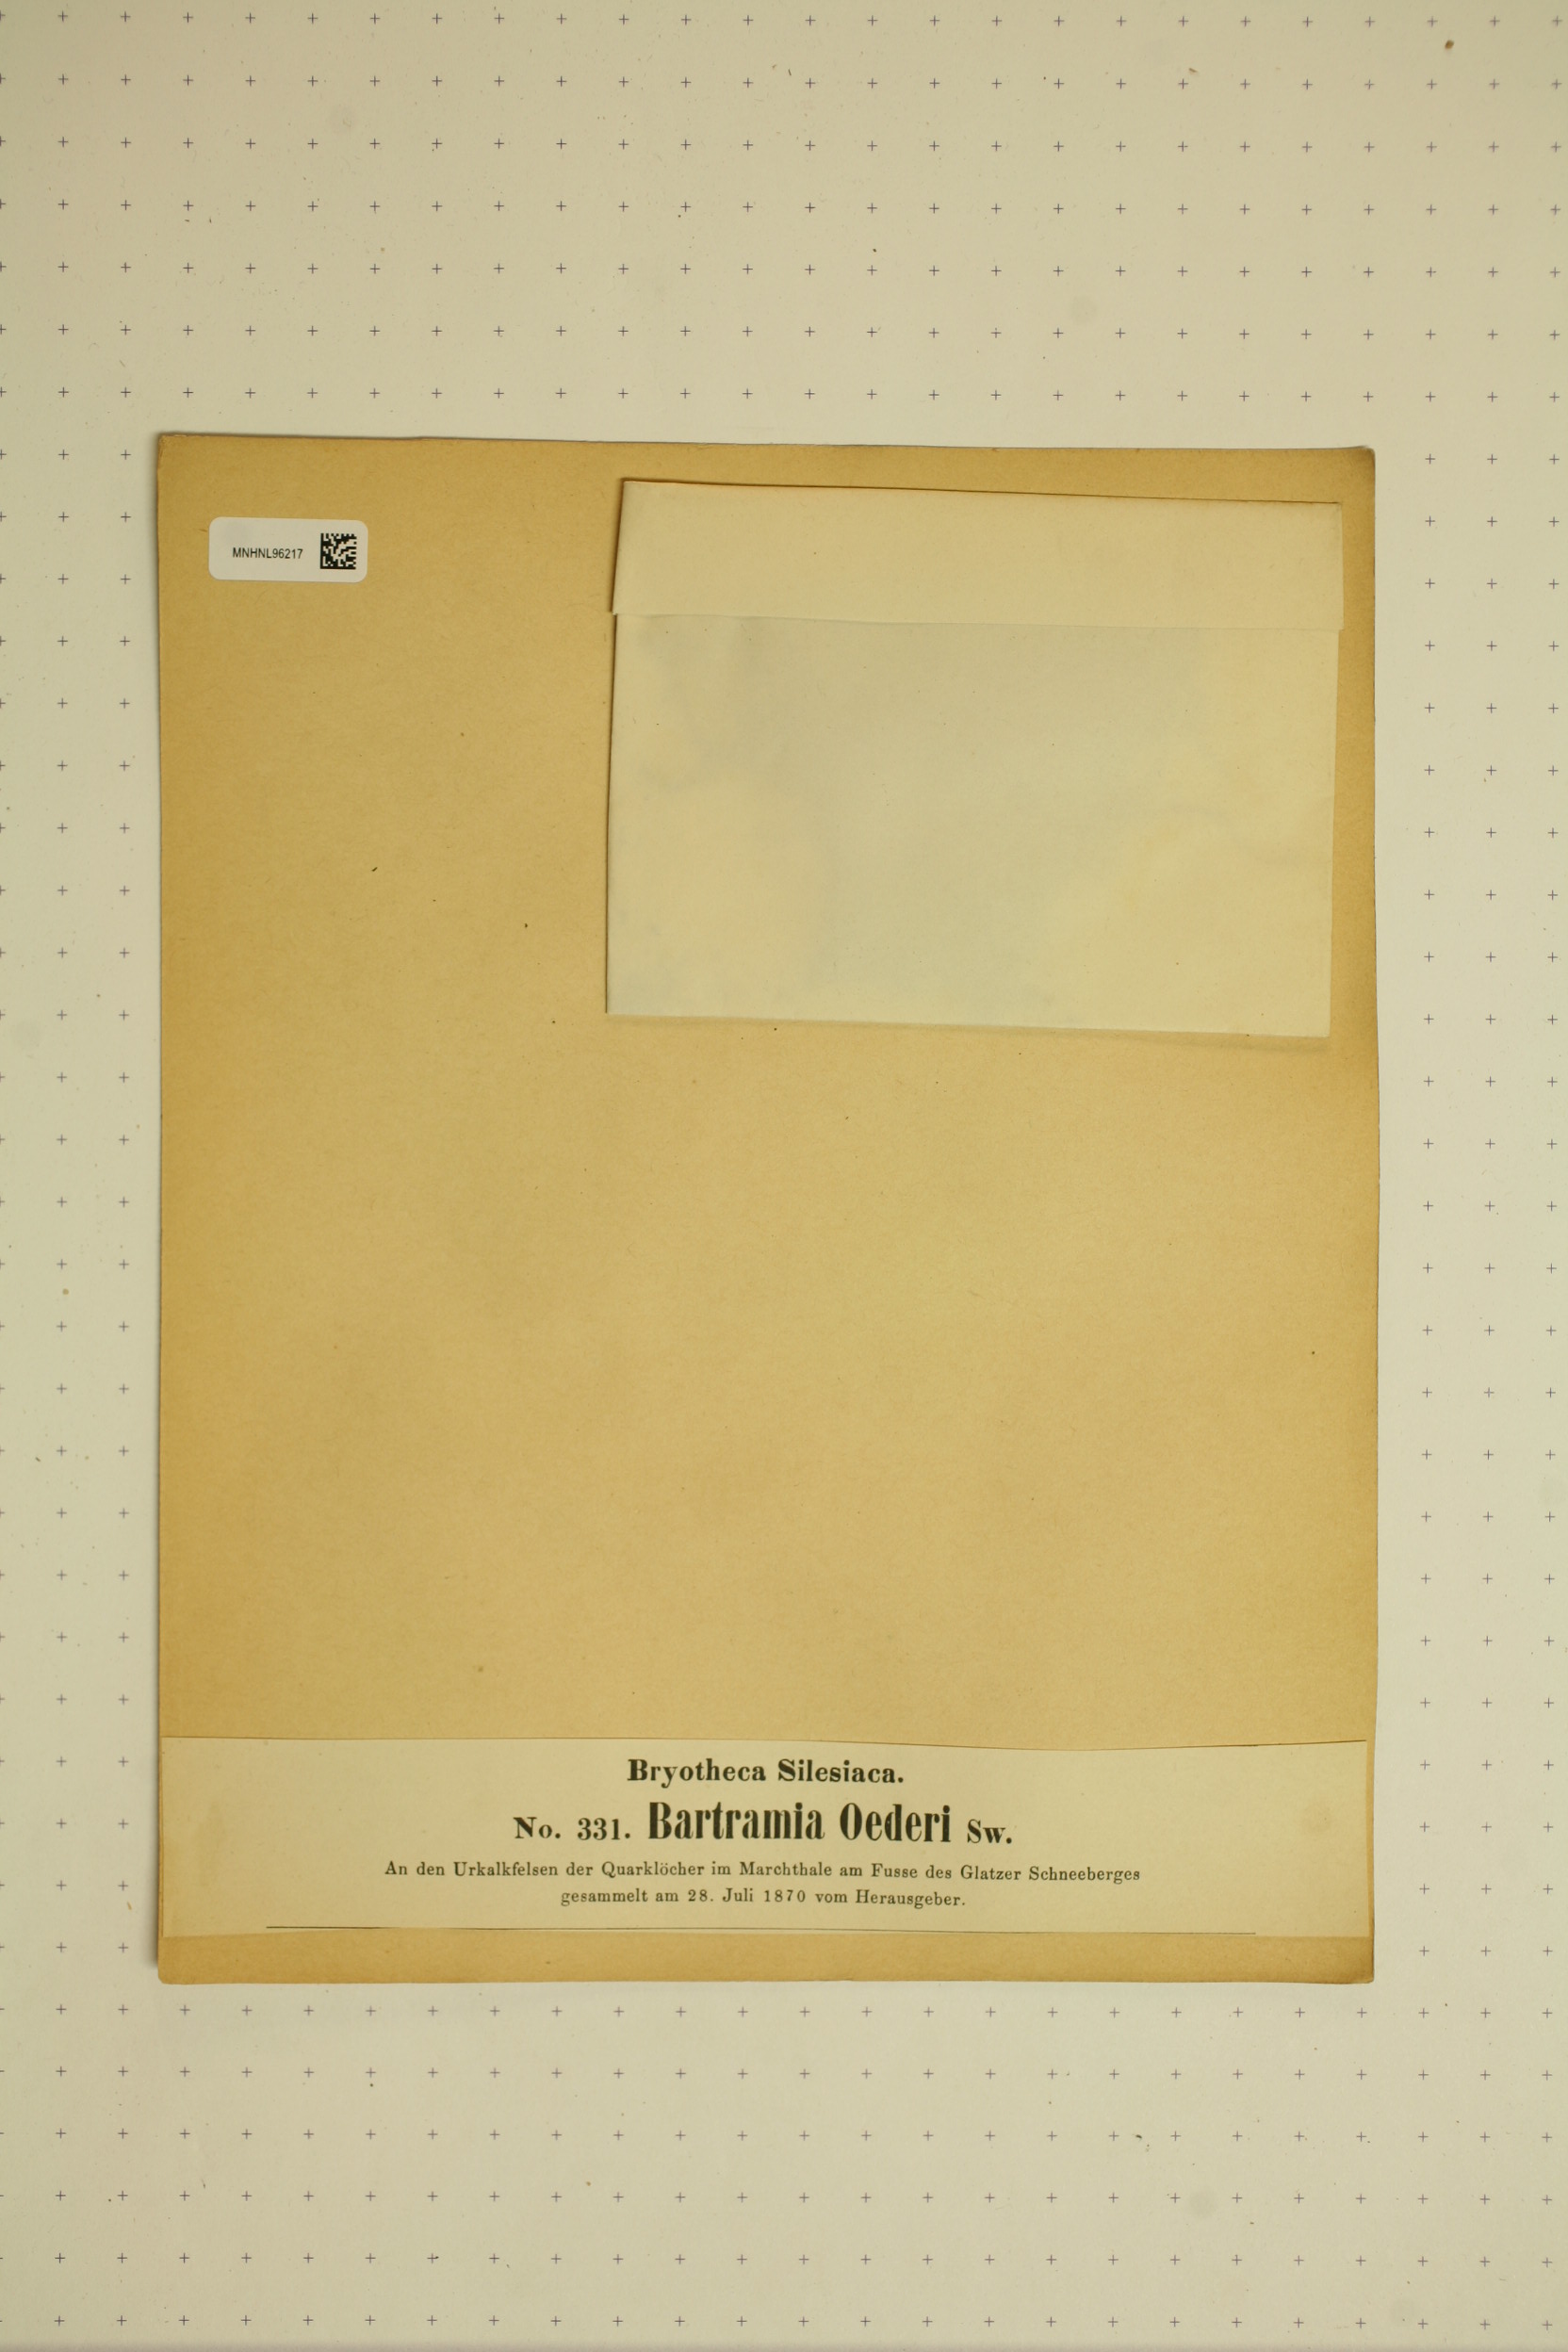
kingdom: Animalia
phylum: Chordata
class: Aves
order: Charadriiformes
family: Scolopacidae
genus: Bartramia
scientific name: Bartramia
